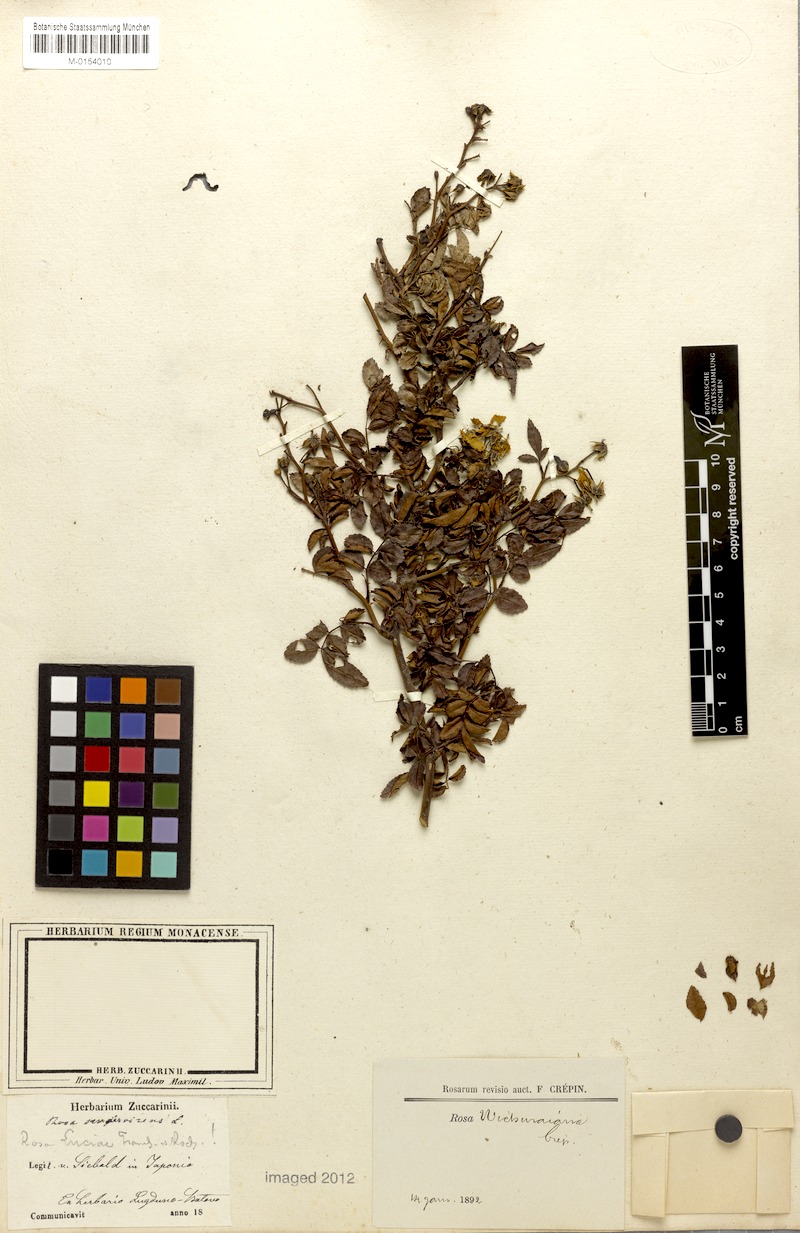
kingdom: Plantae
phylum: Tracheophyta
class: Magnoliopsida
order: Rosales
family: Rosaceae
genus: Rosa
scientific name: Rosa luciae
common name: Memorial rose
